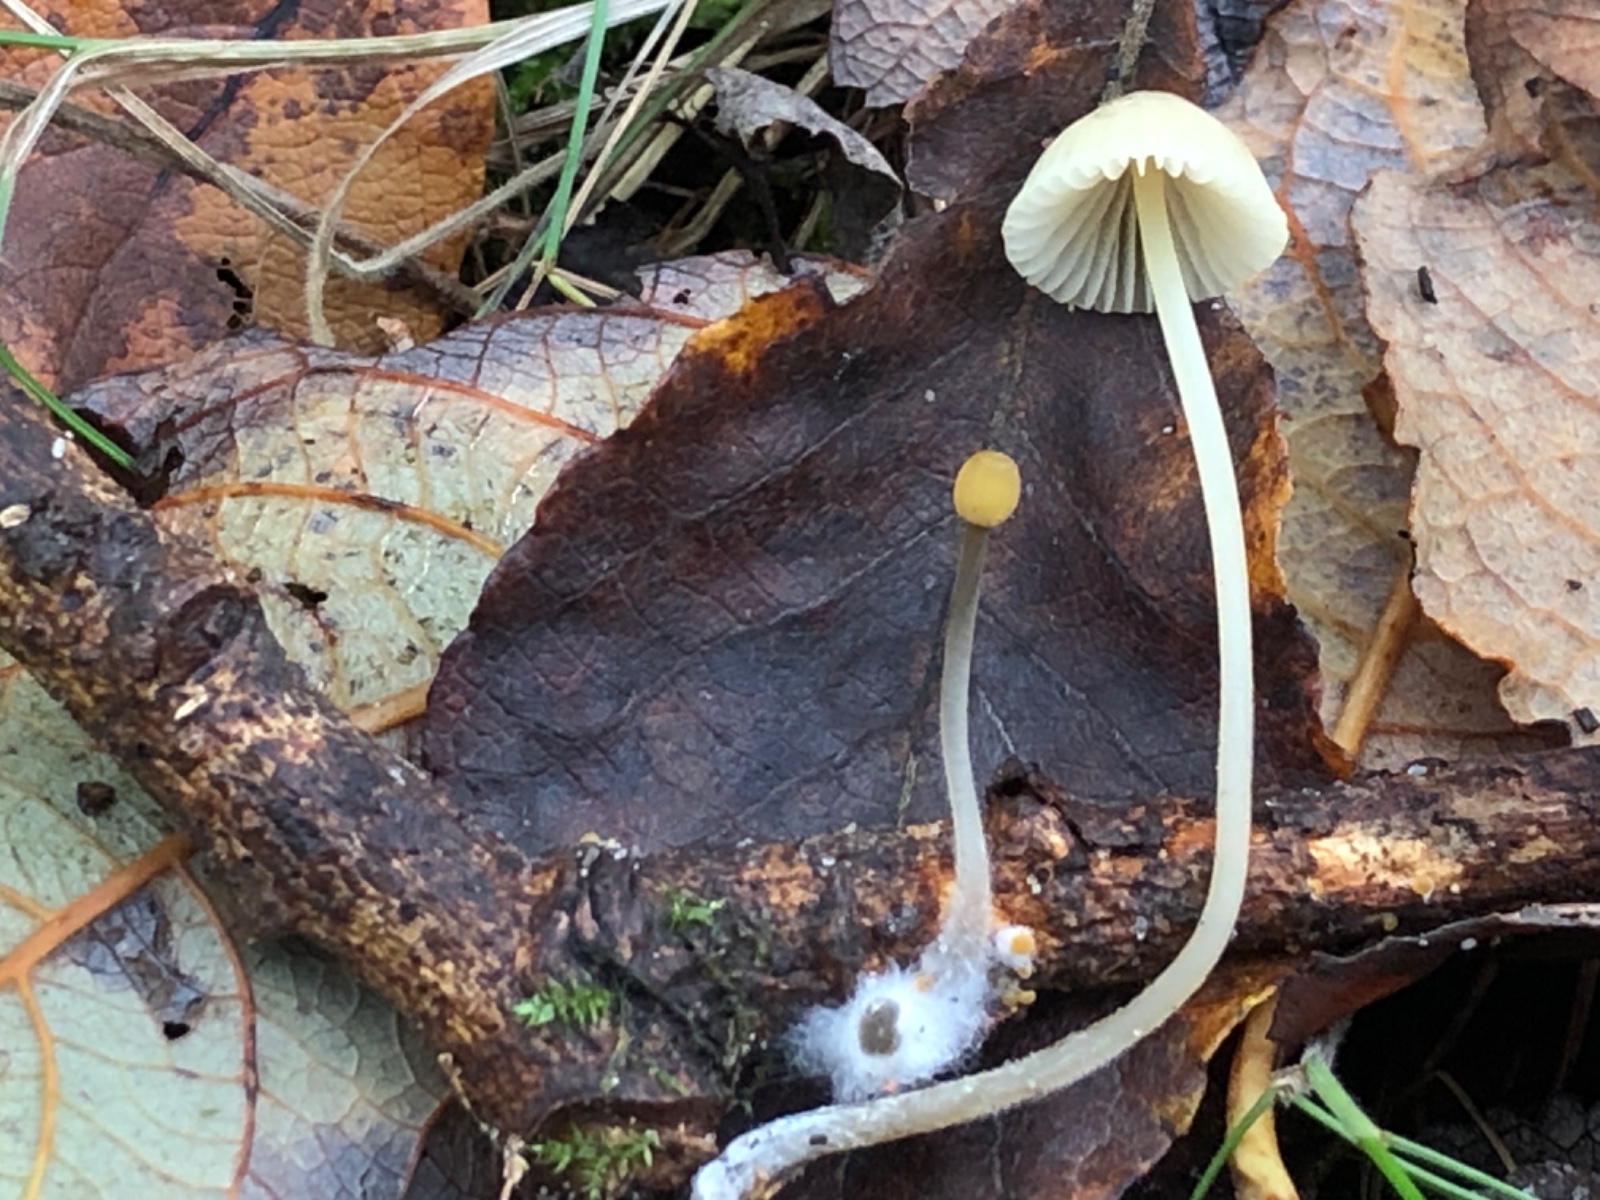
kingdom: Fungi
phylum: Basidiomycota
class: Agaricomycetes
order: Agaricales
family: Mycenaceae
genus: Mycena
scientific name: Mycena citrinomarginata
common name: gulægget huesvamp
